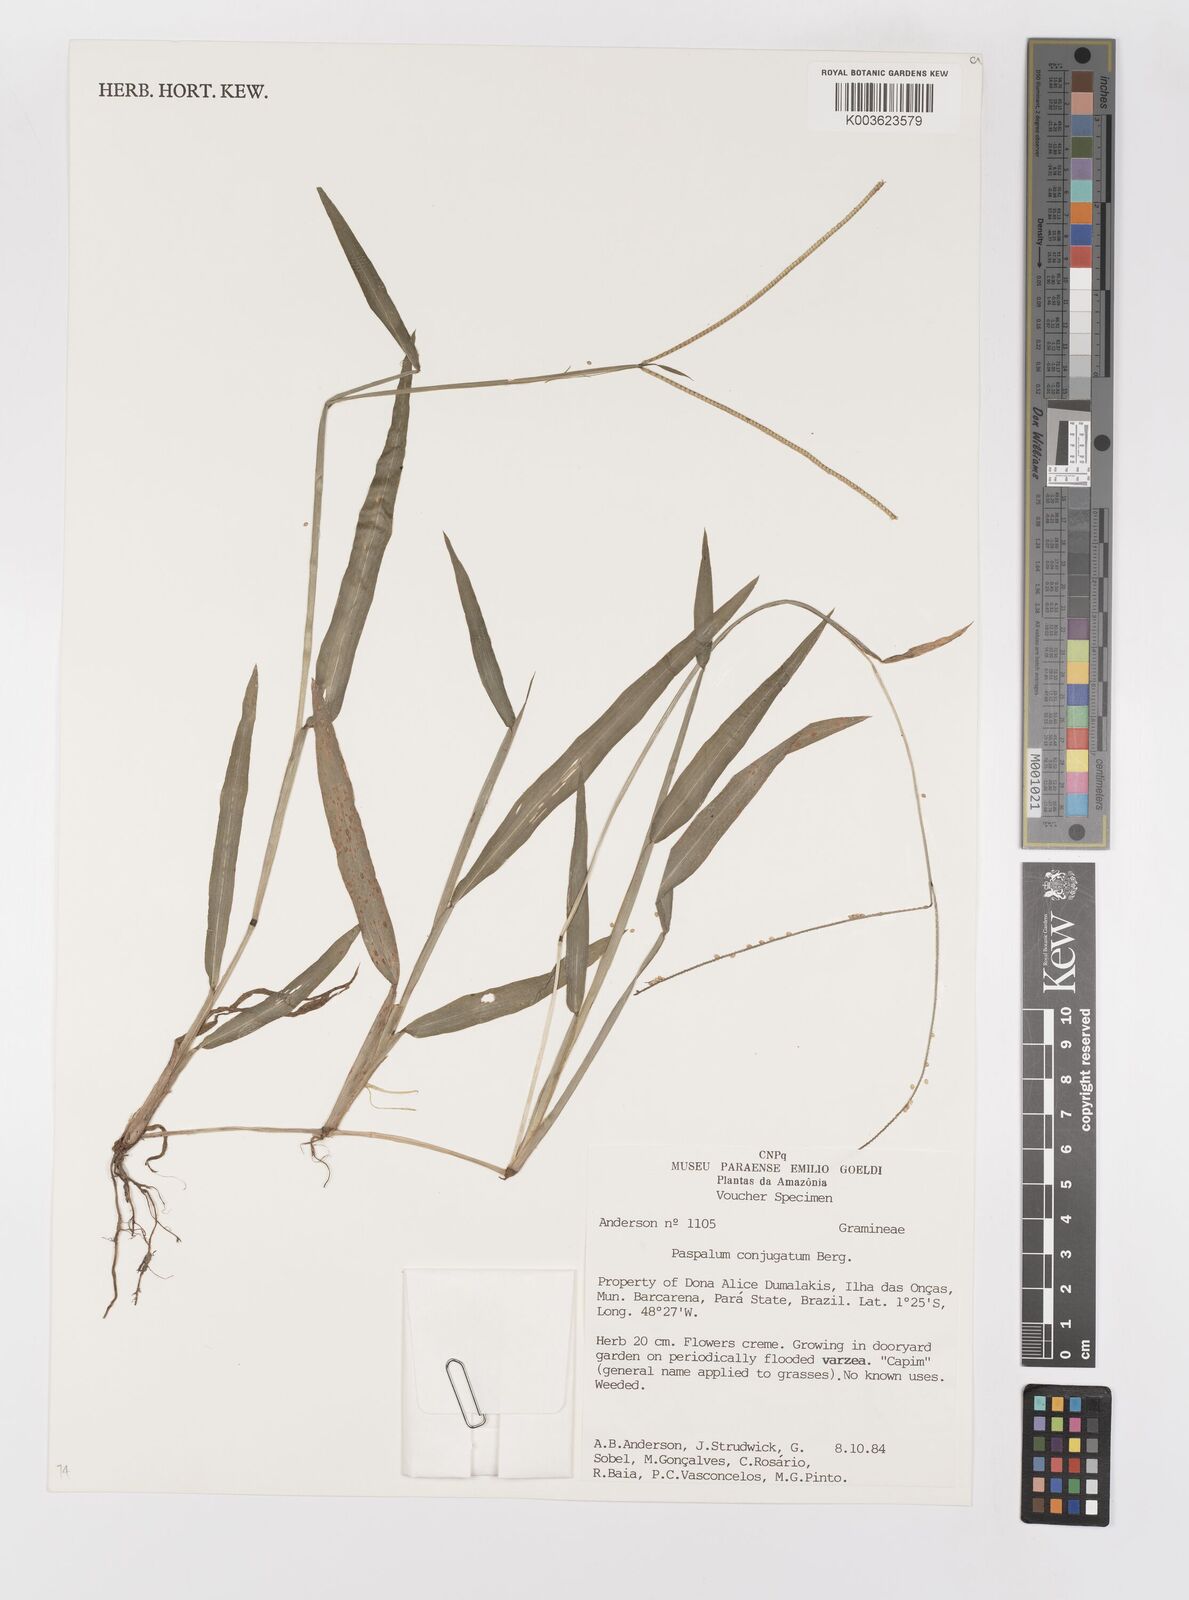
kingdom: Plantae
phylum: Tracheophyta
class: Liliopsida
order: Poales
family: Poaceae
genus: Paspalum
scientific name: Paspalum conjugatum
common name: Hilograss
